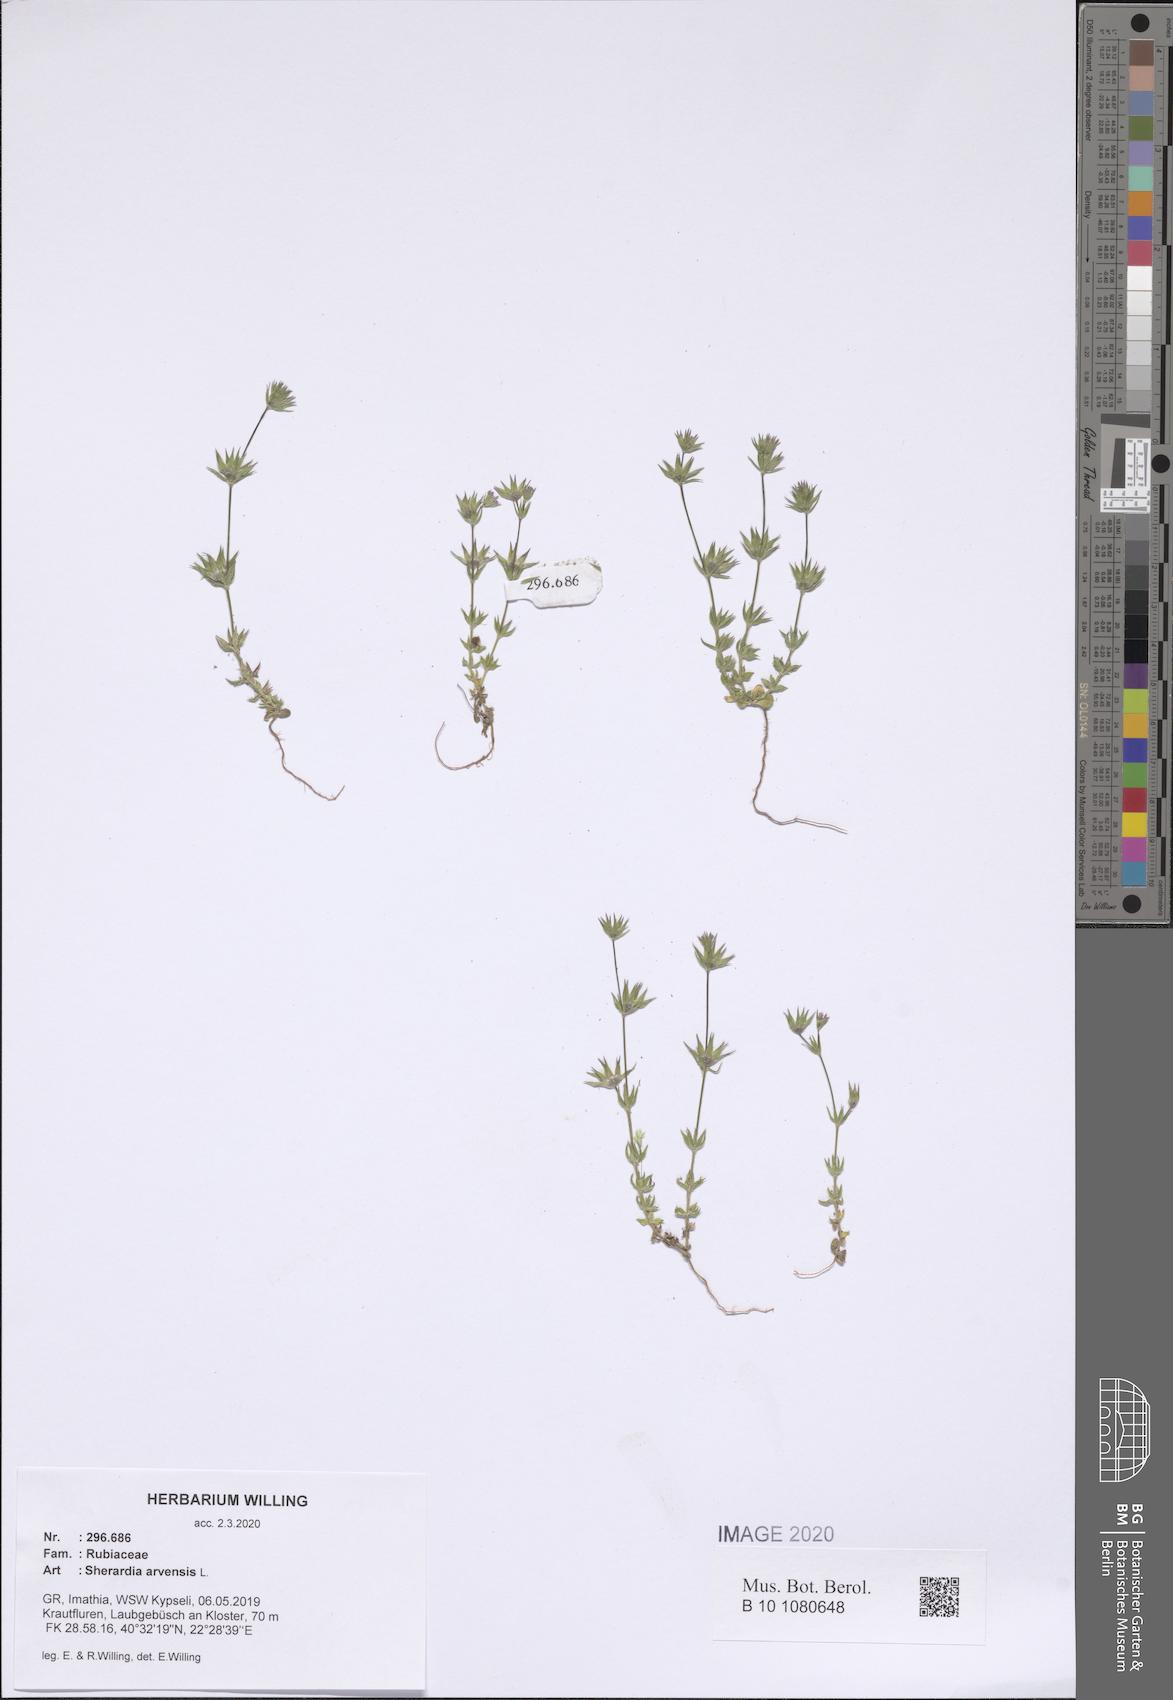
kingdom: Plantae
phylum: Tracheophyta
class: Magnoliopsida
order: Gentianales
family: Rubiaceae
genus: Sherardia
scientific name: Sherardia arvensis
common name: Field madder
